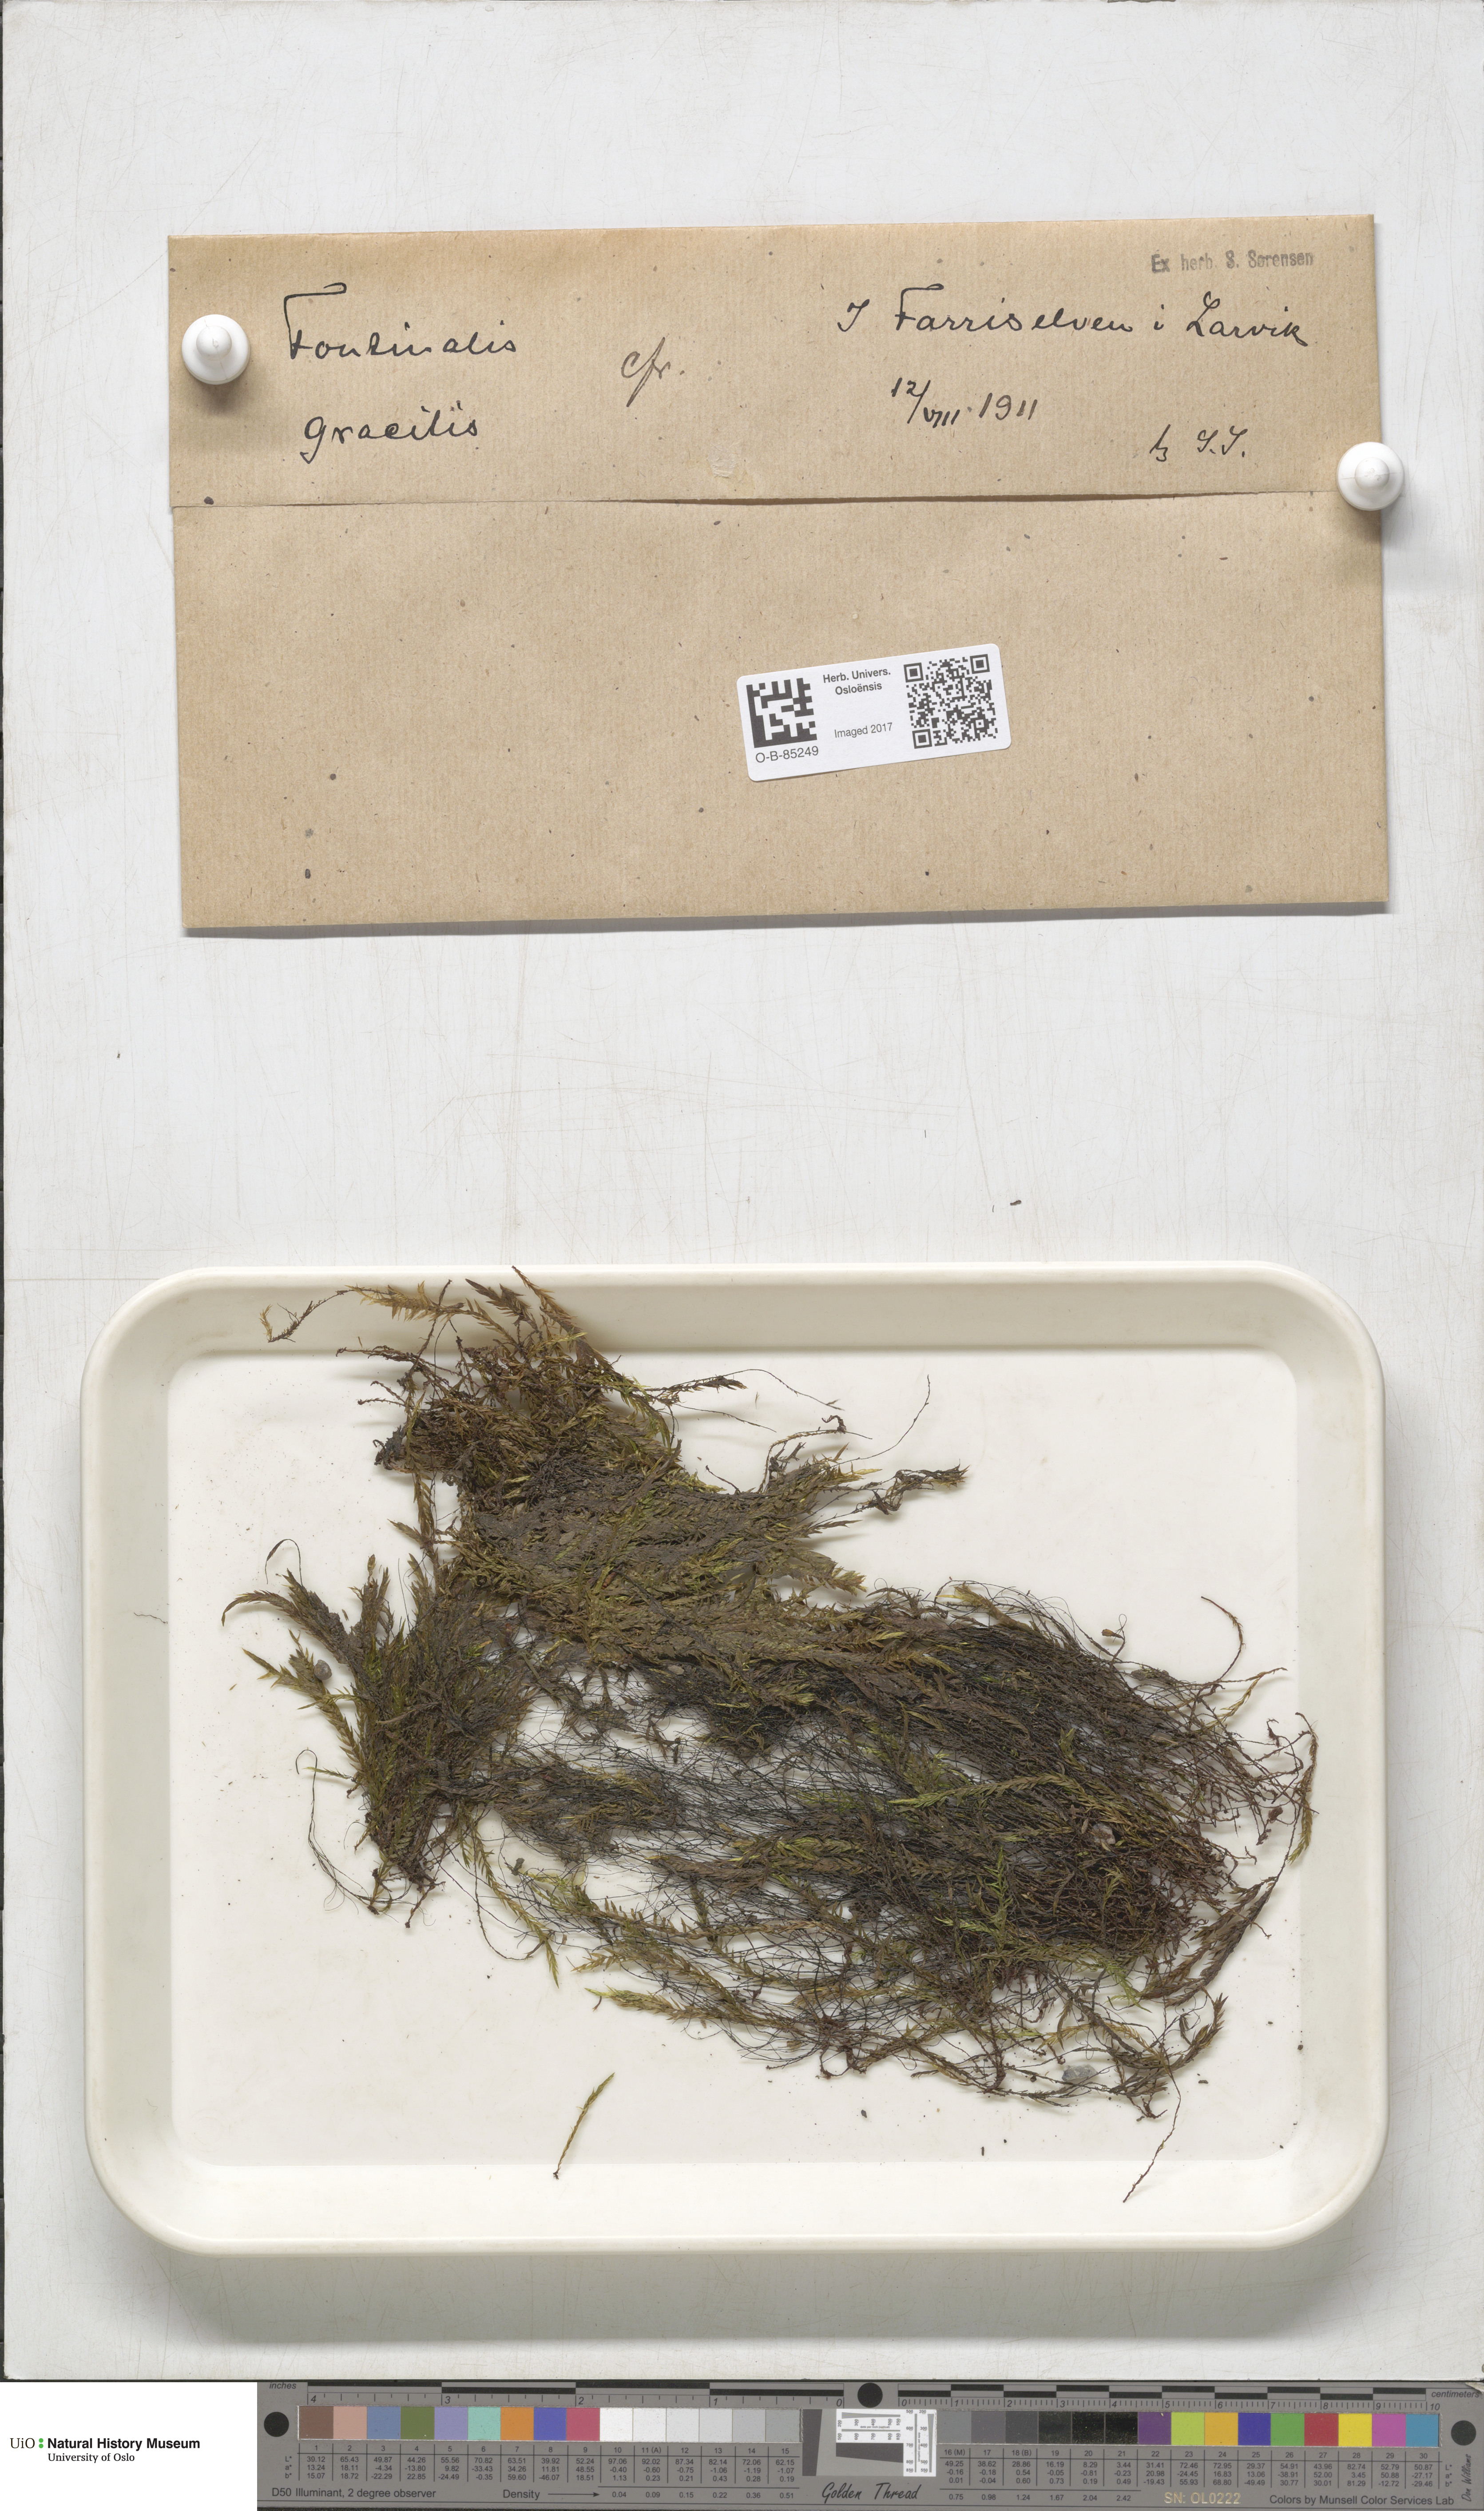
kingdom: Plantae
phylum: Bryophyta
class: Bryopsida
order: Hypnales
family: Fontinalaceae
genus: Fontinalis
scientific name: Fontinalis antipyretica
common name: Greater water-moss
